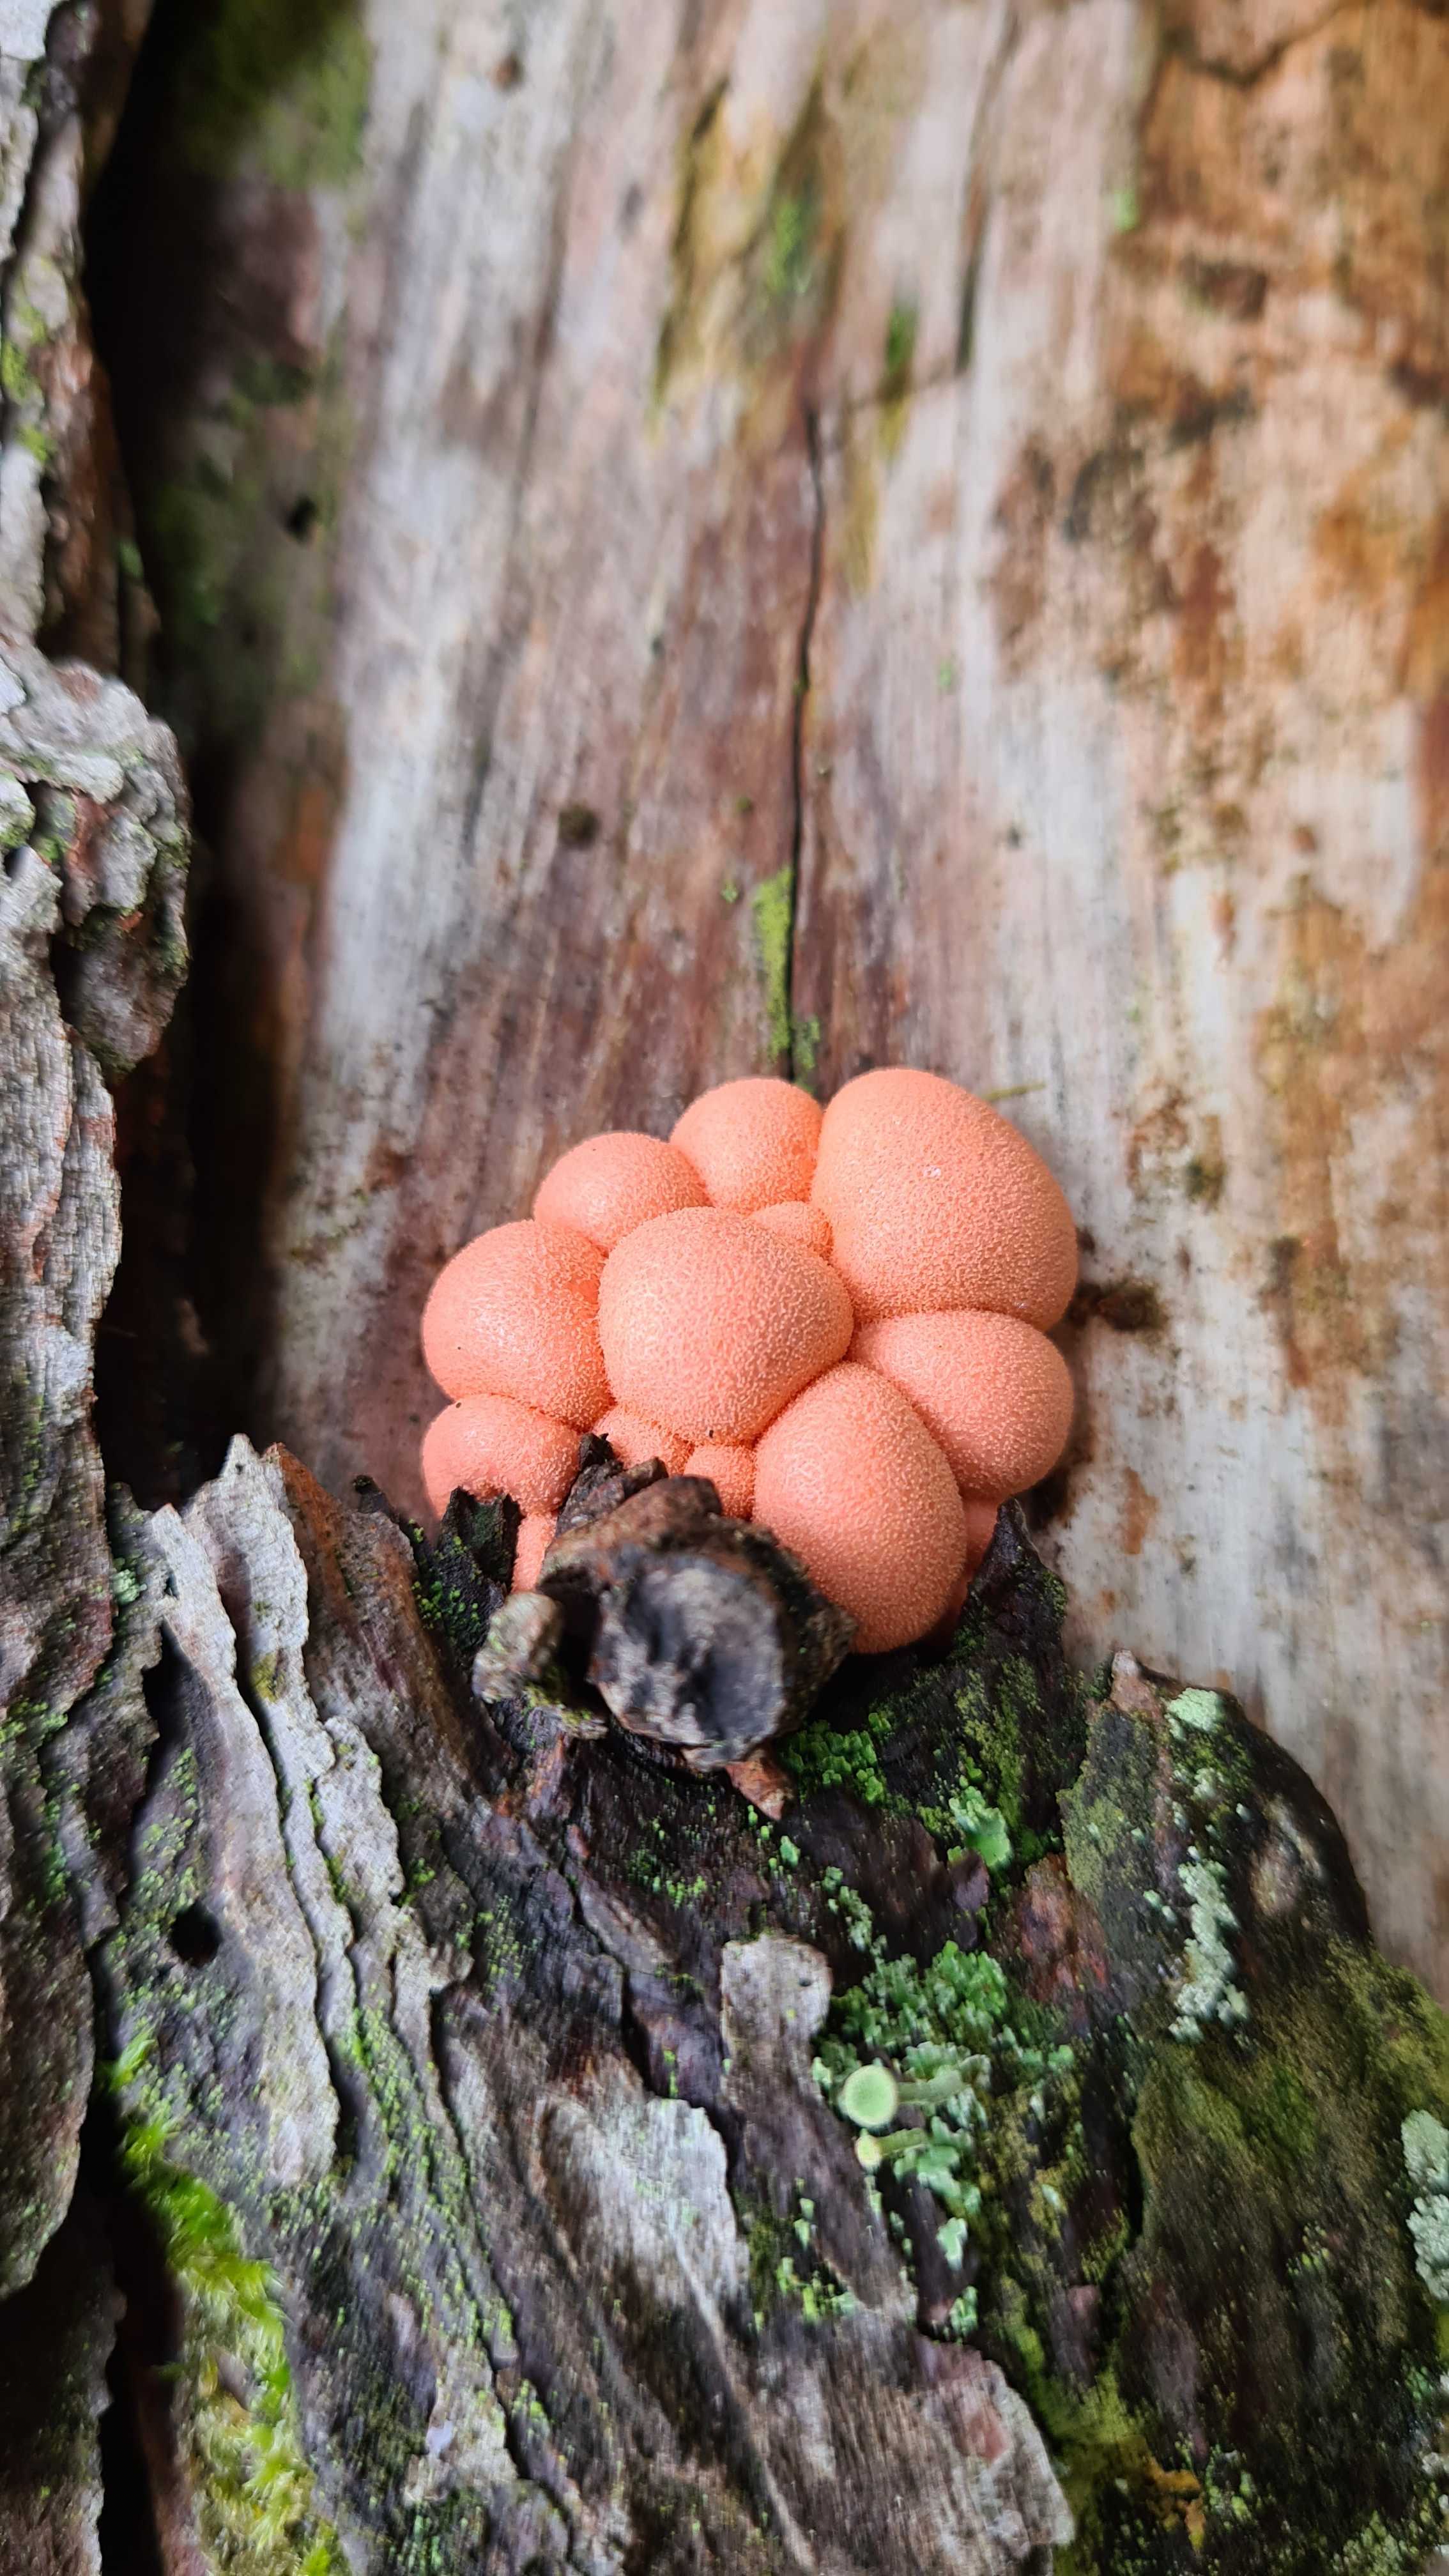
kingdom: Protozoa
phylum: Mycetozoa
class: Myxomycetes
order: Cribrariales
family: Tubiferaceae
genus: Lycogala
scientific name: Lycogala epidendrum
